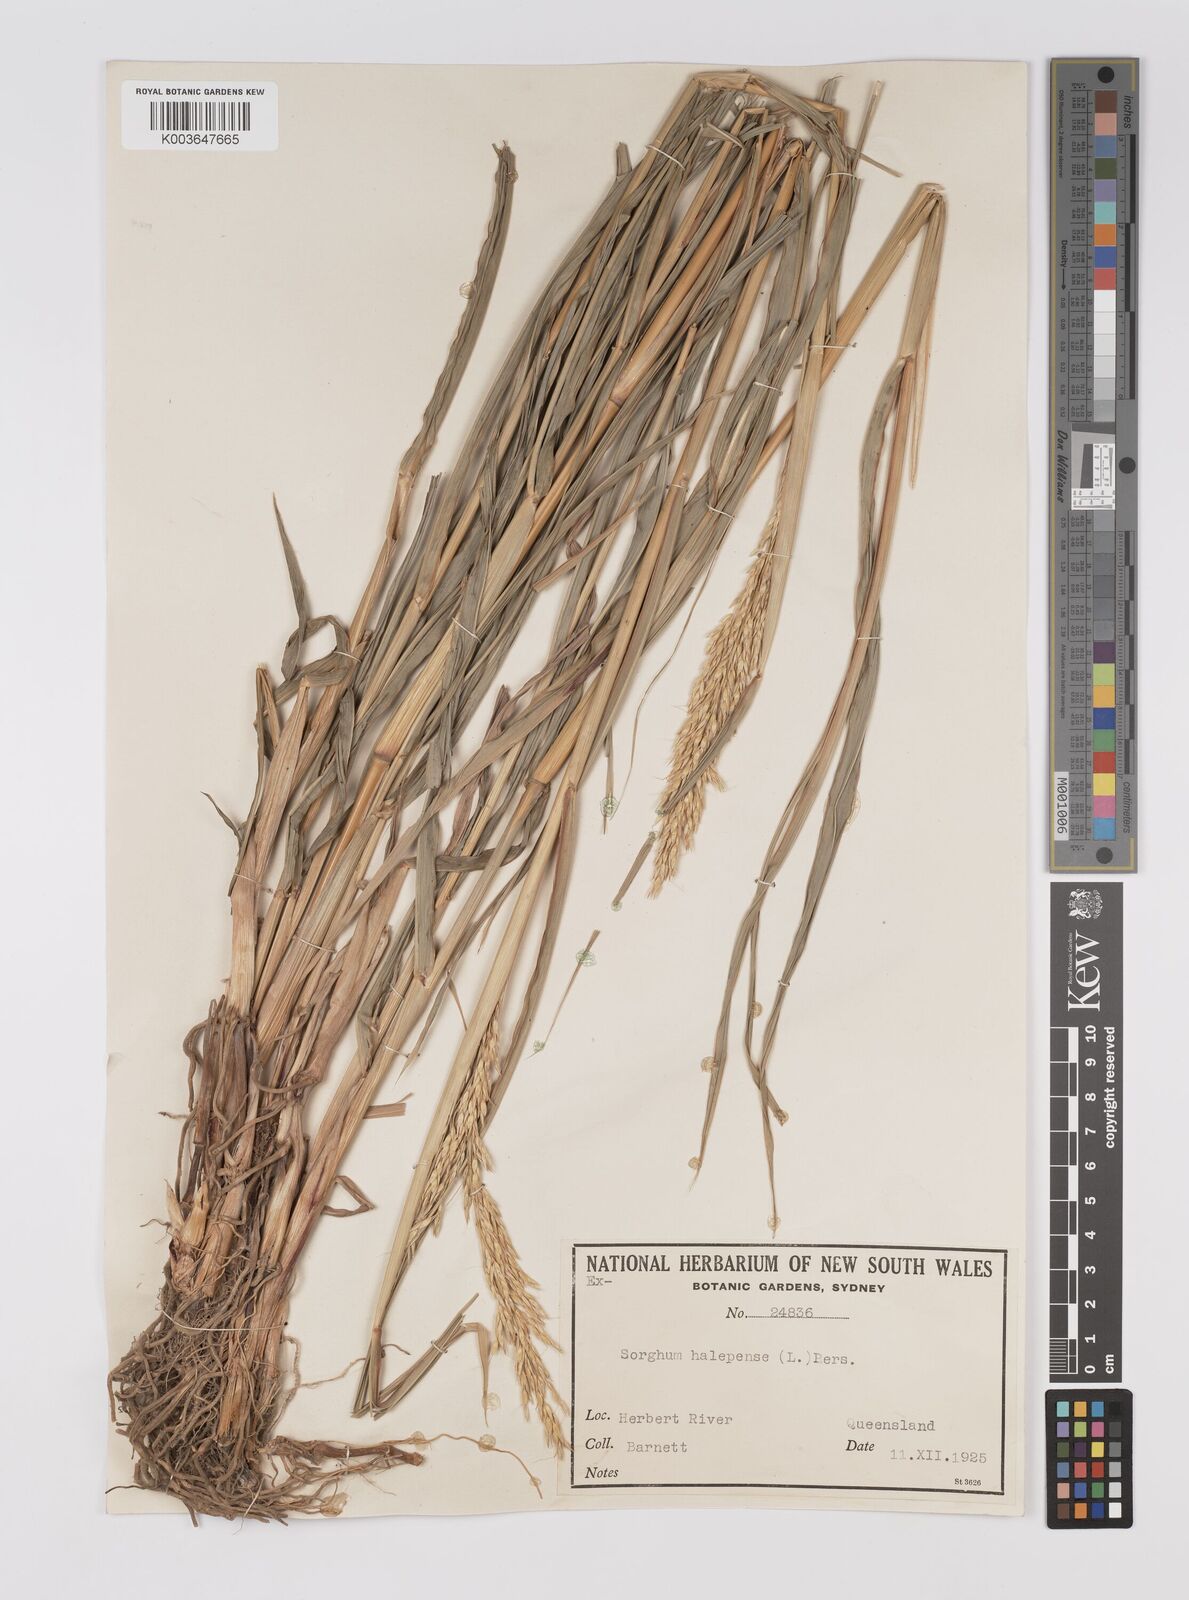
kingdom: Plantae
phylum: Tracheophyta
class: Liliopsida
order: Poales
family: Poaceae
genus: Sorghum
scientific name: Sorghum halepense
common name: Johnson-grass
